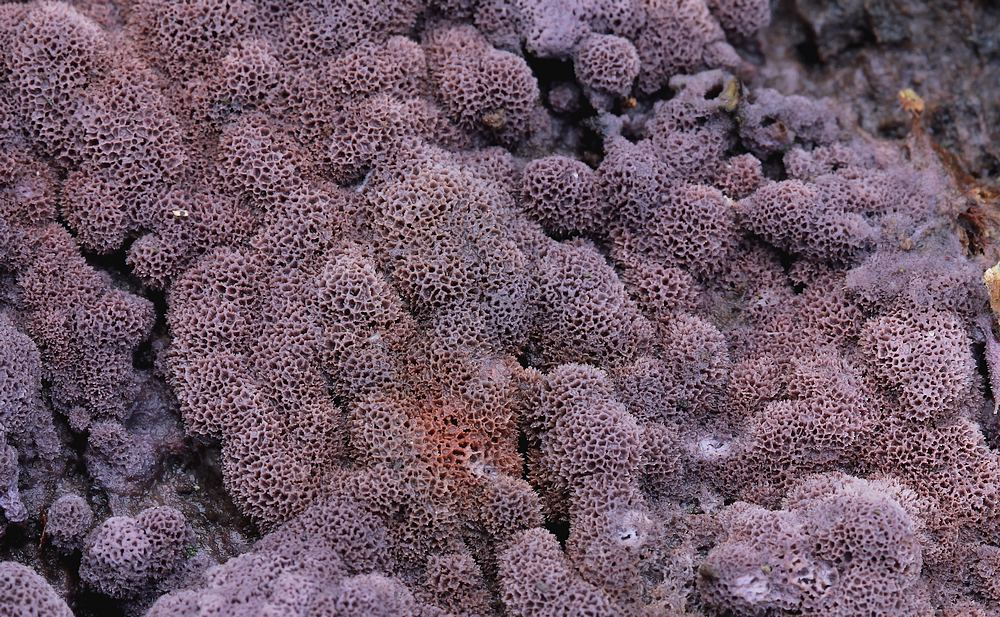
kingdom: Fungi
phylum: Basidiomycota
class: Agaricomycetes
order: Polyporales
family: Irpicaceae
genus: Ceriporia
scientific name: Ceriporia excelsa
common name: lilla voksporesvamp
